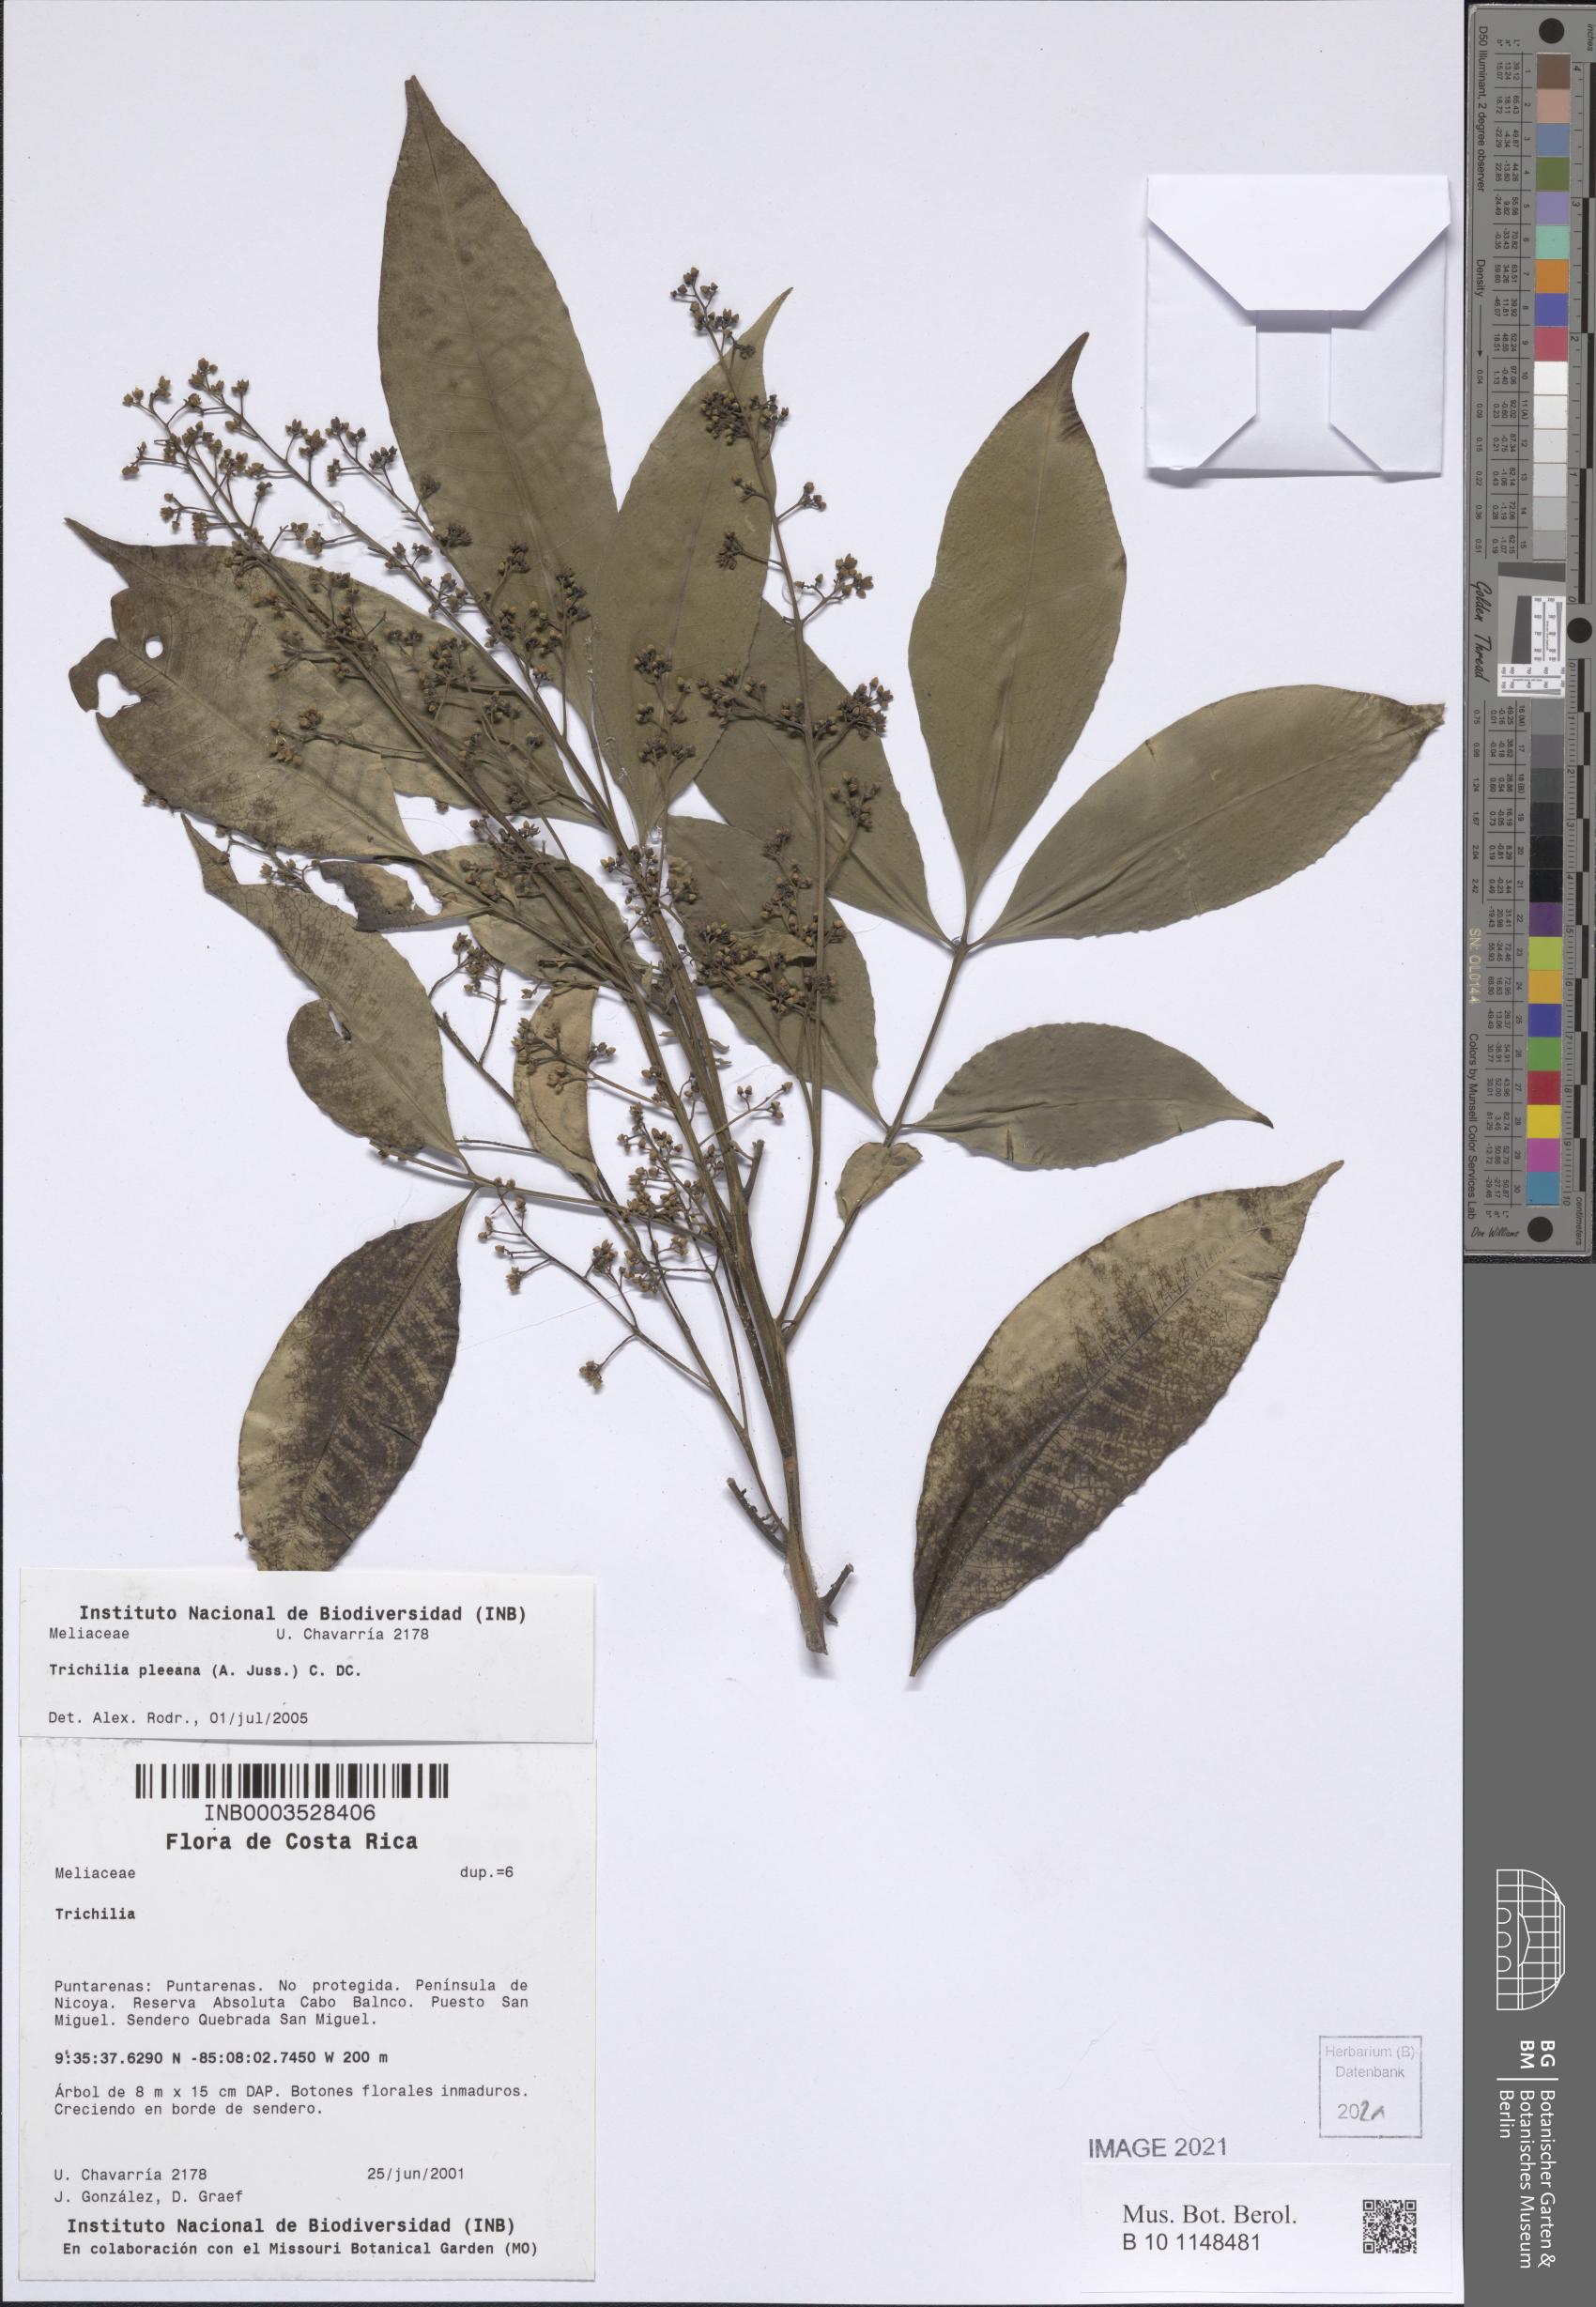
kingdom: Plantae
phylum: Tracheophyta
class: Magnoliopsida
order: Sapindales
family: Meliaceae
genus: Trichilia
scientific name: Trichilia pleeana
